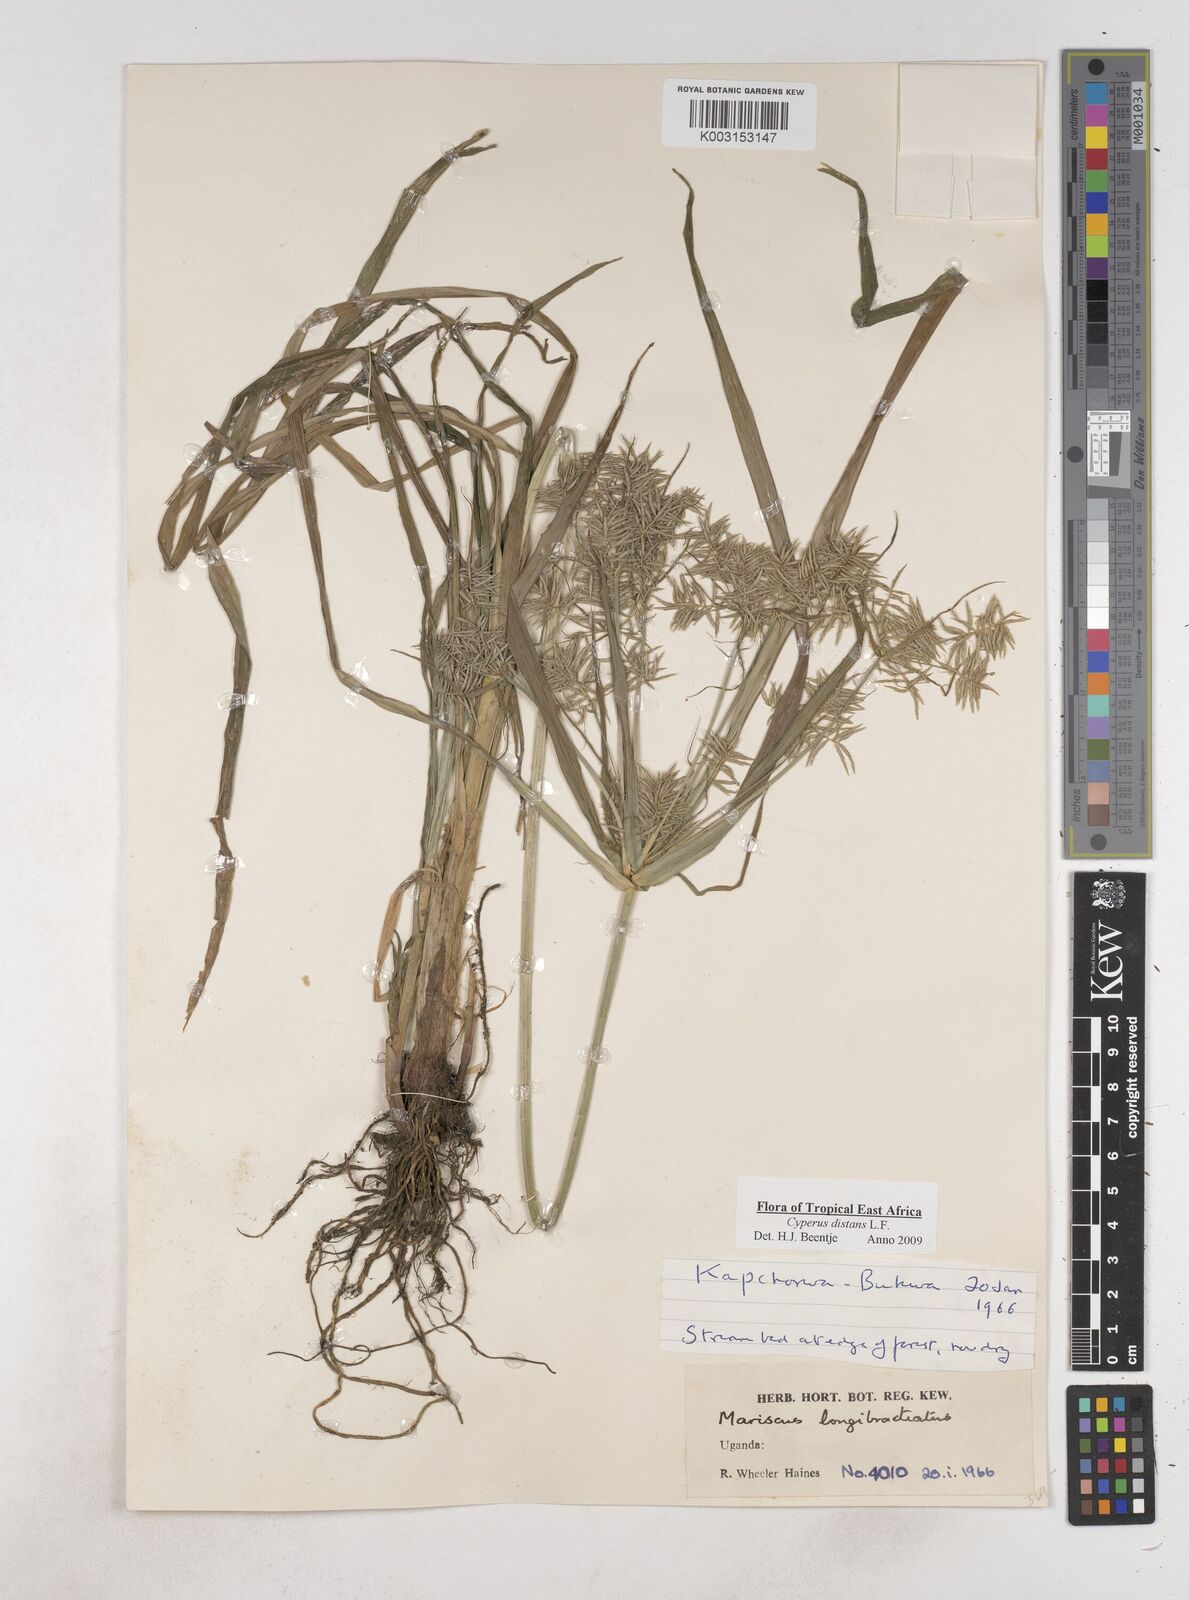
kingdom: Plantae
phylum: Tracheophyta
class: Liliopsida
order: Poales
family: Cyperaceae
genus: Cyperus
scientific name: Cyperus distans
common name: Slender cyperus
